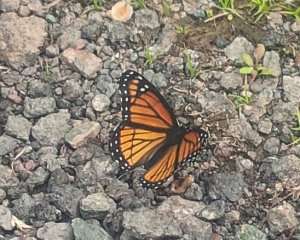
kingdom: Animalia
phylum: Arthropoda
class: Insecta
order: Lepidoptera
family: Nymphalidae
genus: Limenitis
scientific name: Limenitis archippus
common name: Viceroy
